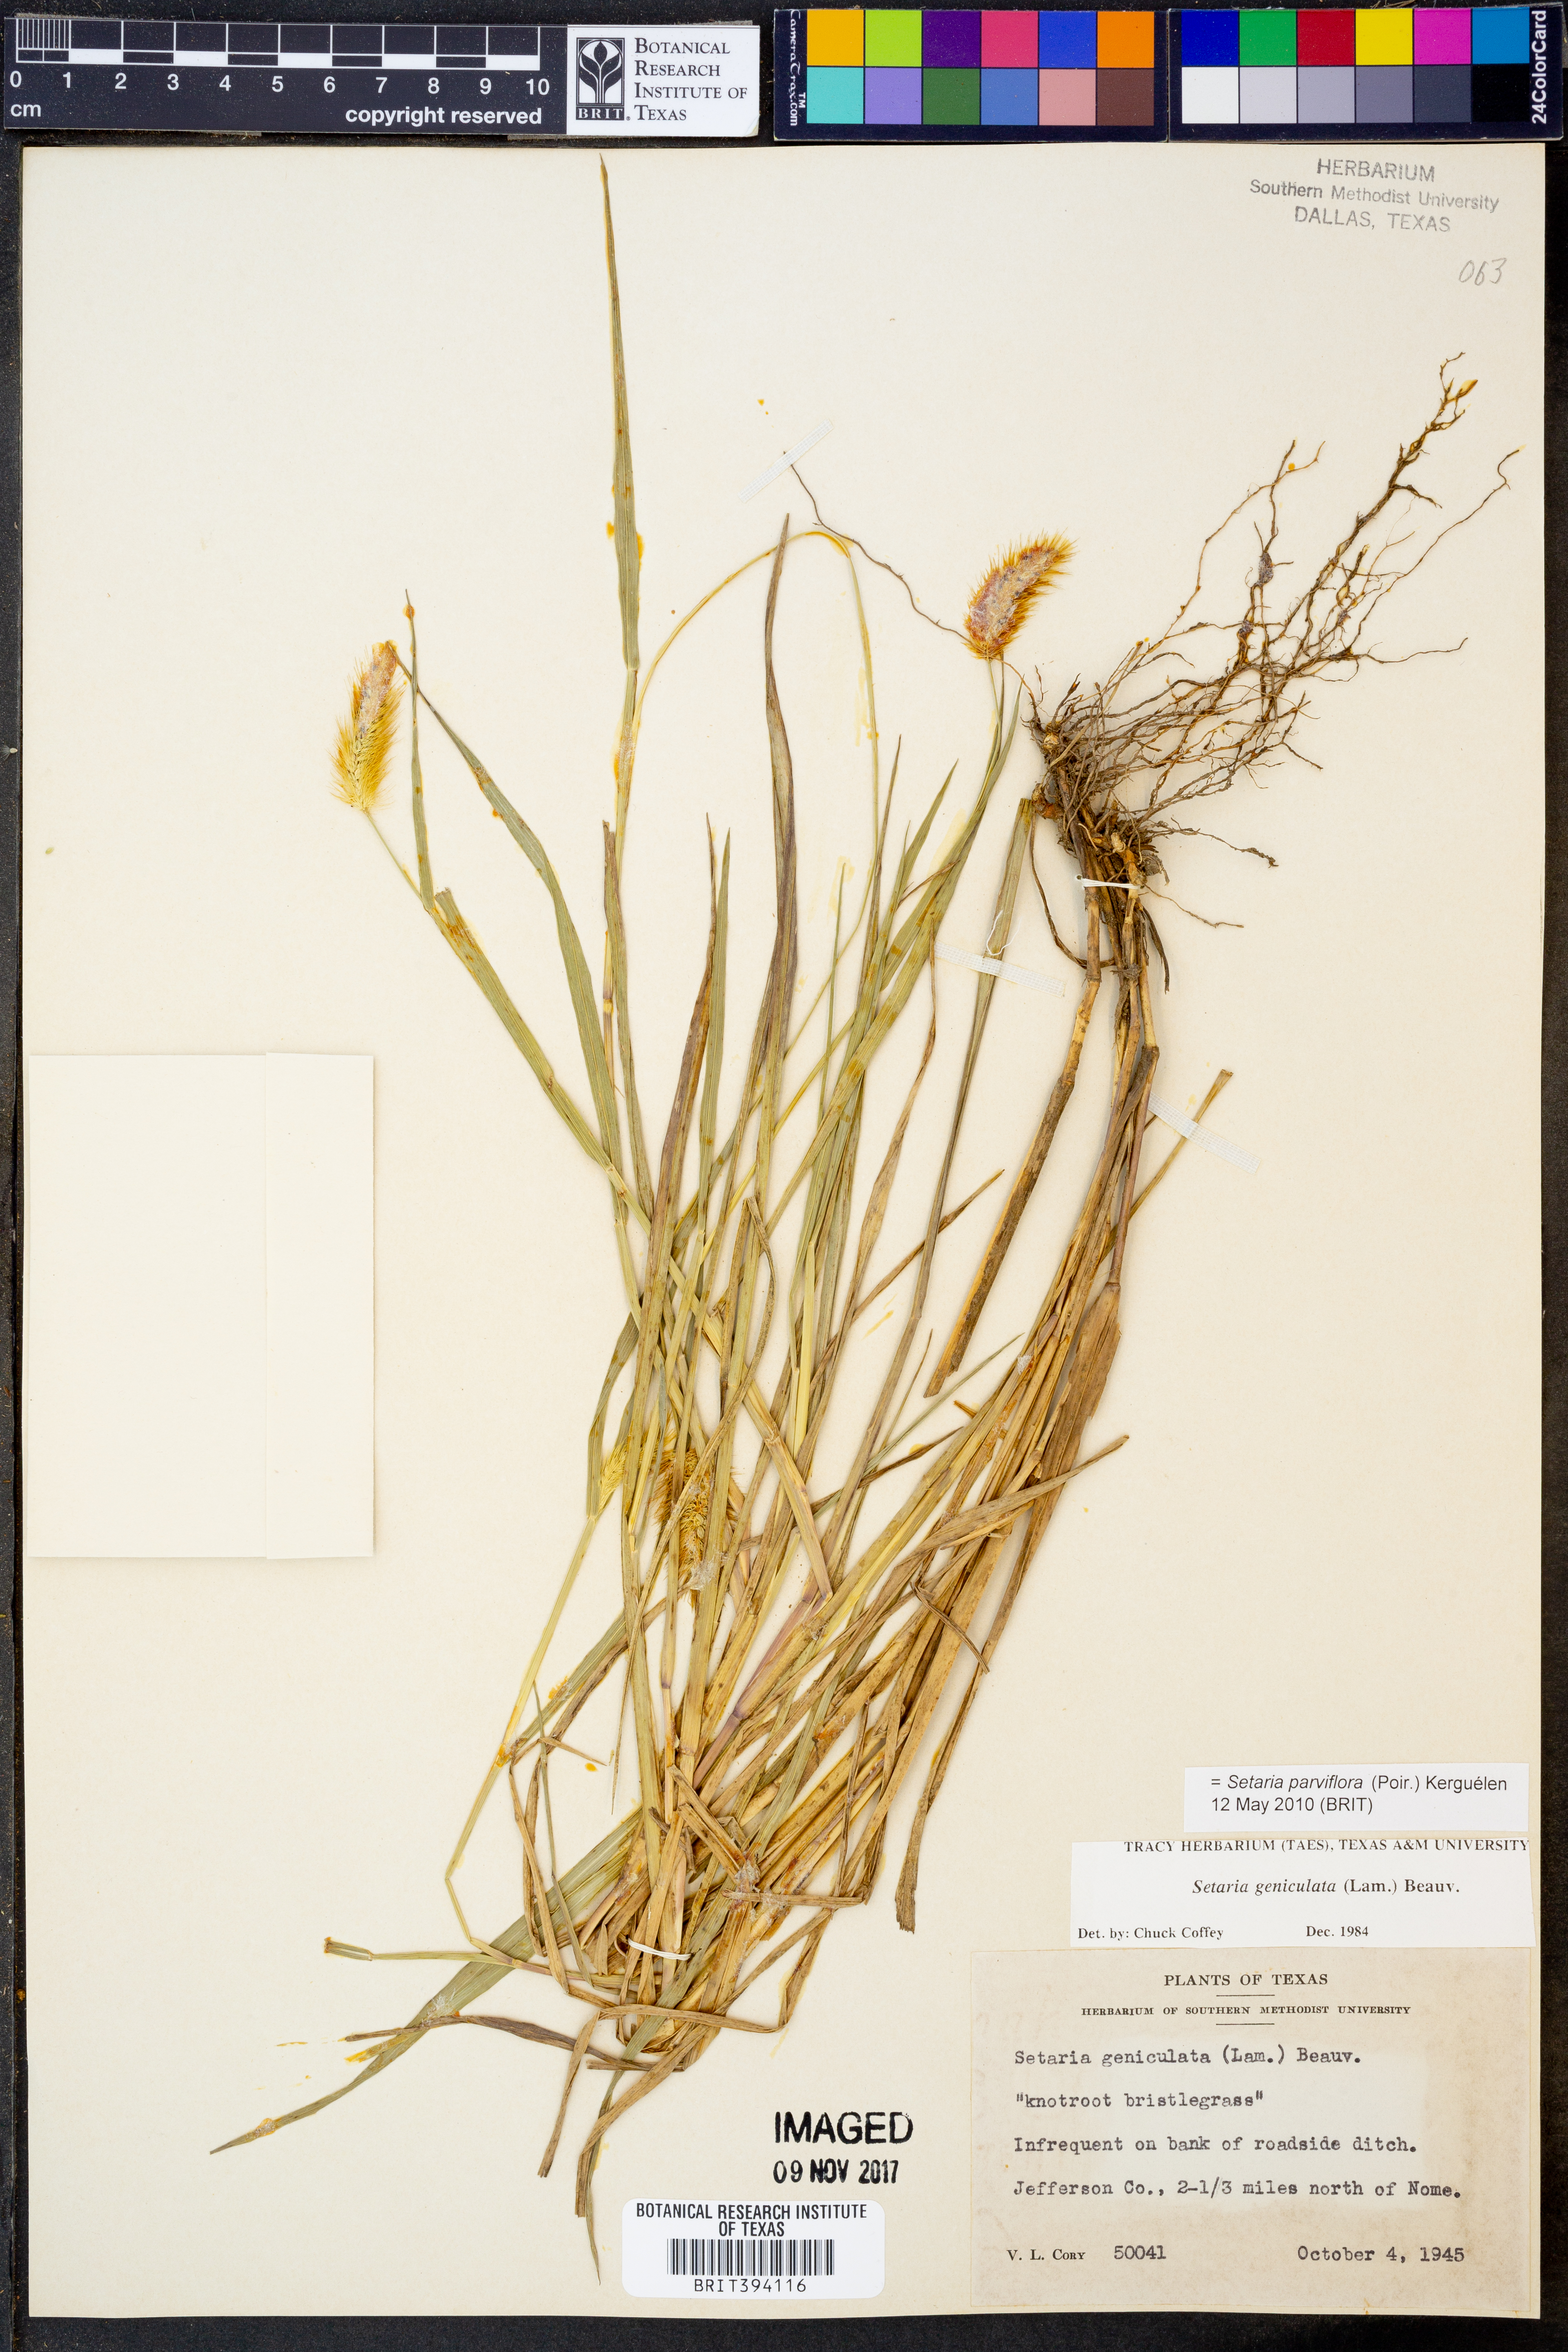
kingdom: Plantae
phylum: Tracheophyta
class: Liliopsida
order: Poales
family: Poaceae
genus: Setaria
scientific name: Setaria parviflora
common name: Knotroot bristle-grass
